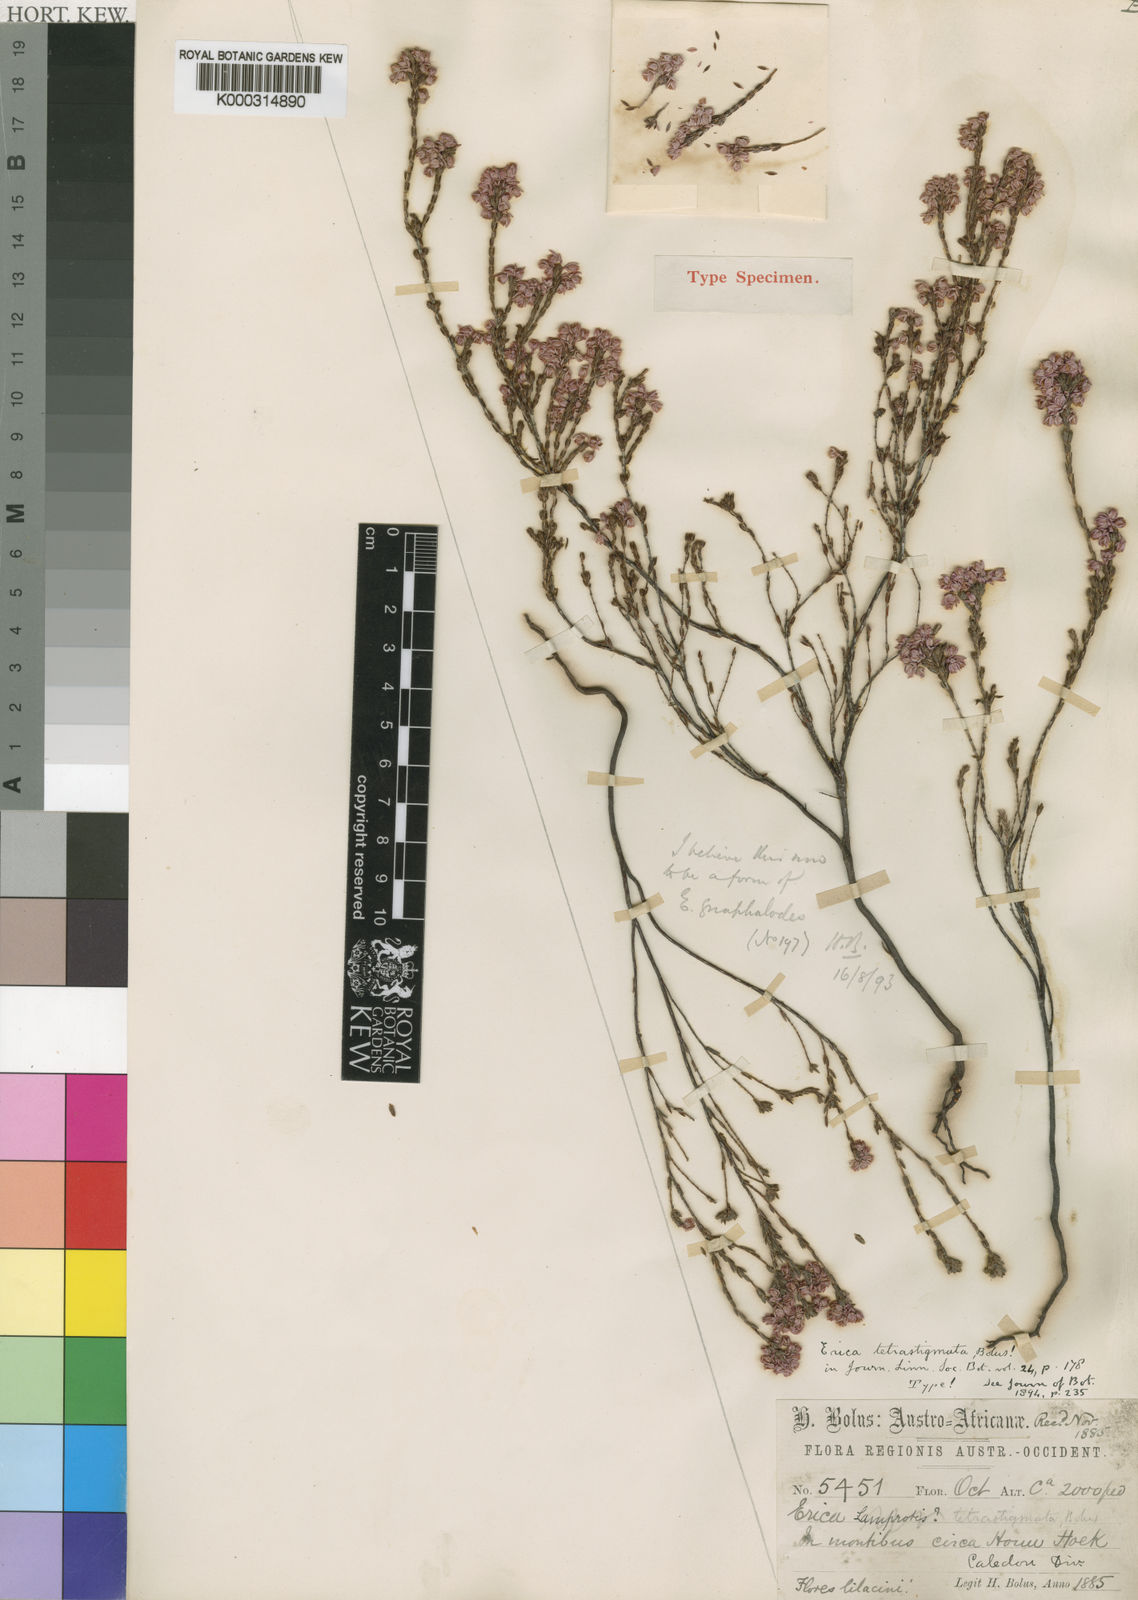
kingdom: Plantae
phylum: Tracheophyta
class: Magnoliopsida
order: Ericales
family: Ericaceae
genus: Erica
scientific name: Erica calycina
